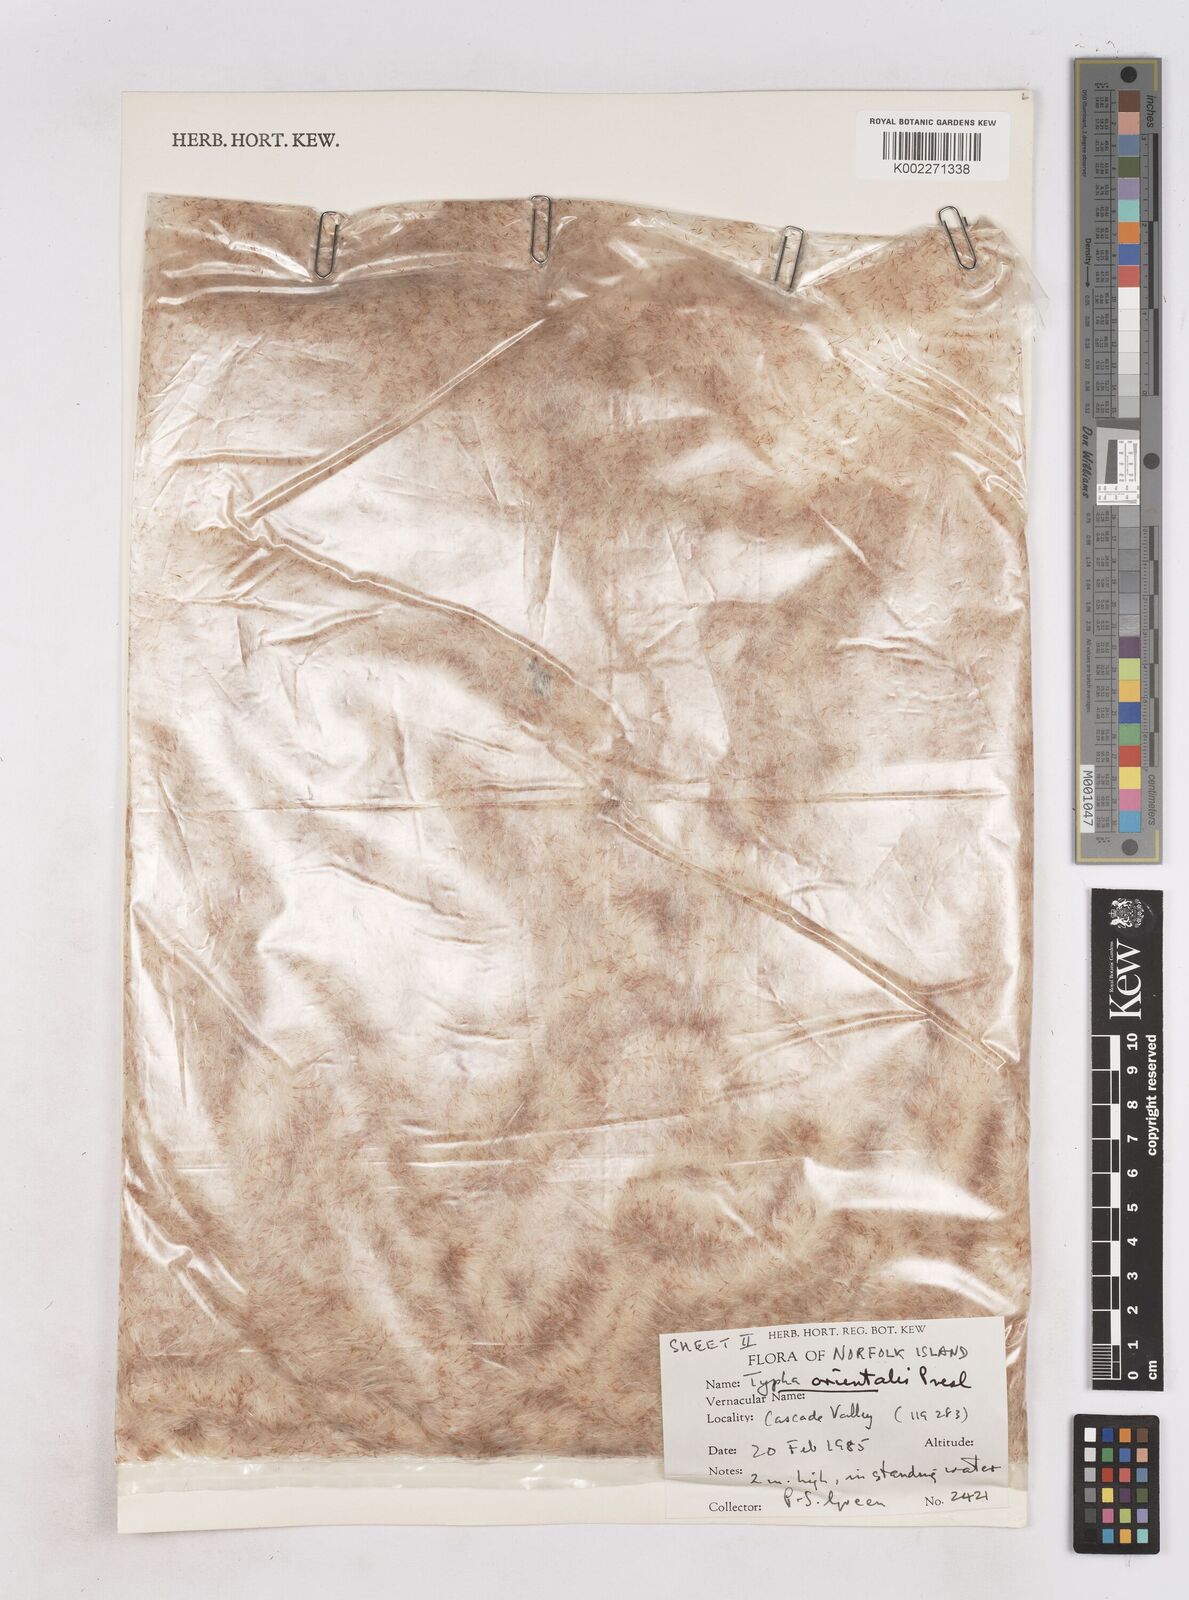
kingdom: Plantae
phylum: Tracheophyta
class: Liliopsida
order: Poales
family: Typhaceae
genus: Typha
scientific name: Typha orientalis
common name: Bullrush
